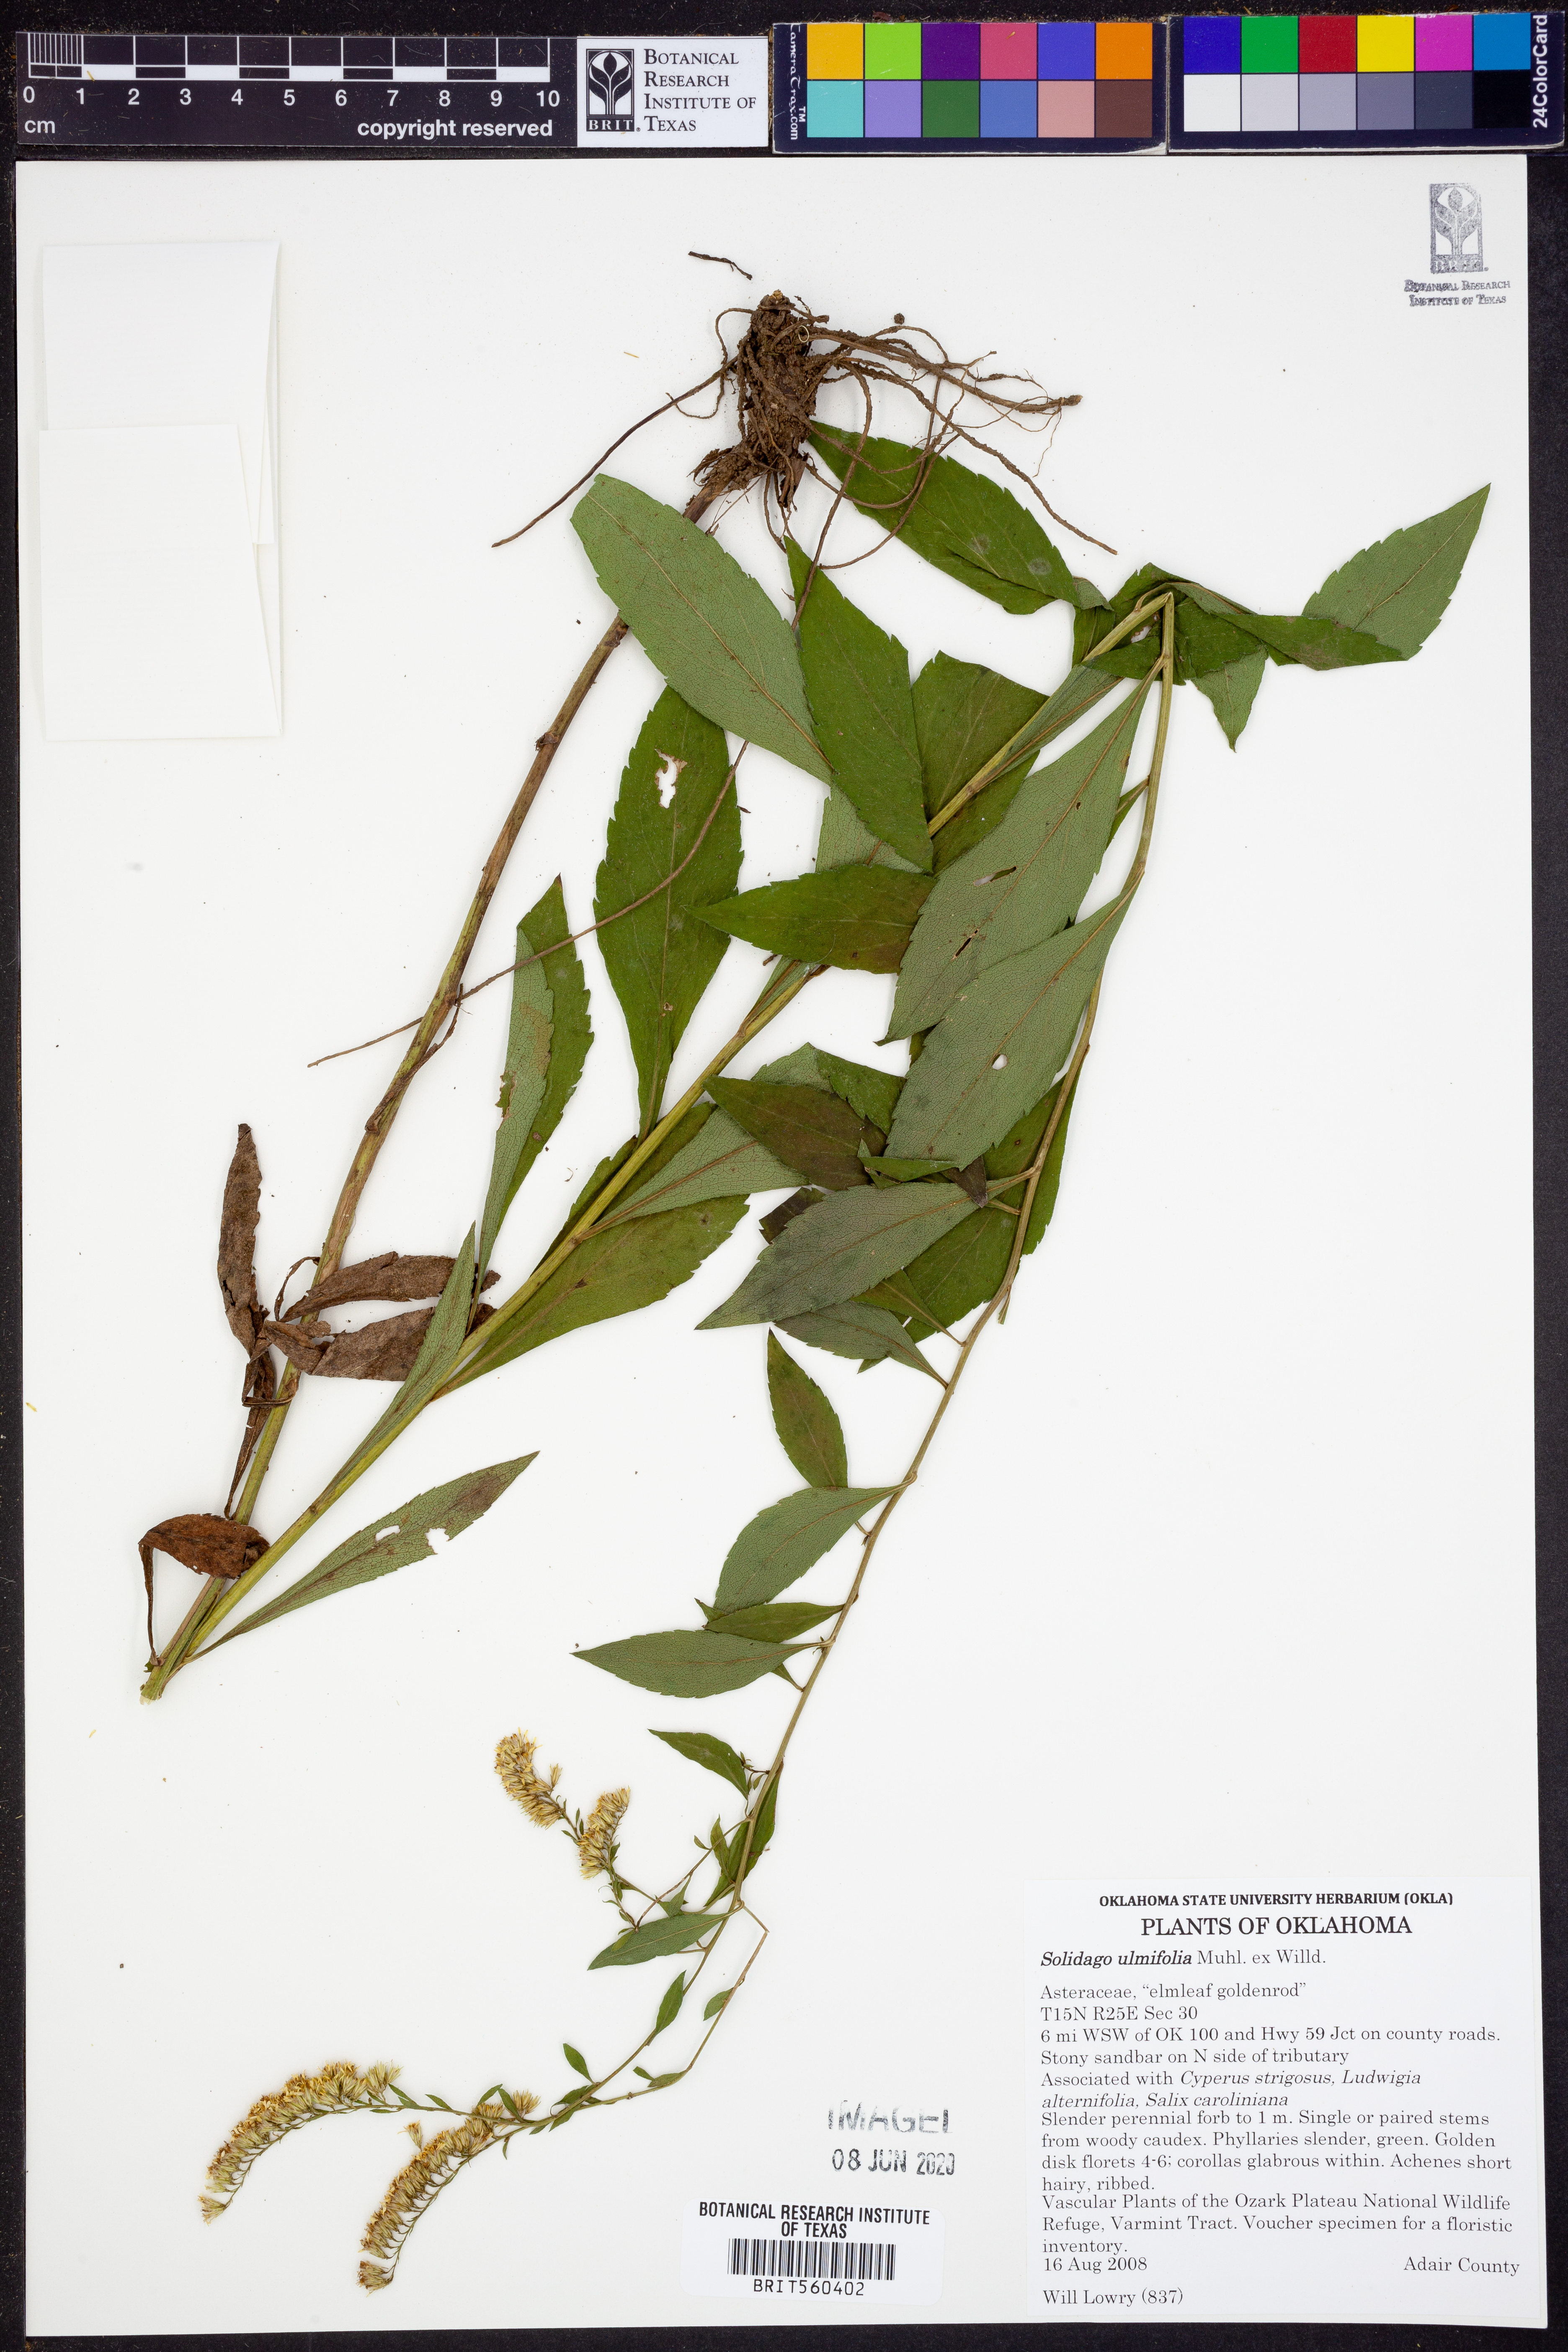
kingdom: Plantae
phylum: Tracheophyta
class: Magnoliopsida
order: Asterales
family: Asteraceae
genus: Solidago
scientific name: Solidago ulmifolia
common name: Elm-leaf goldenrod
